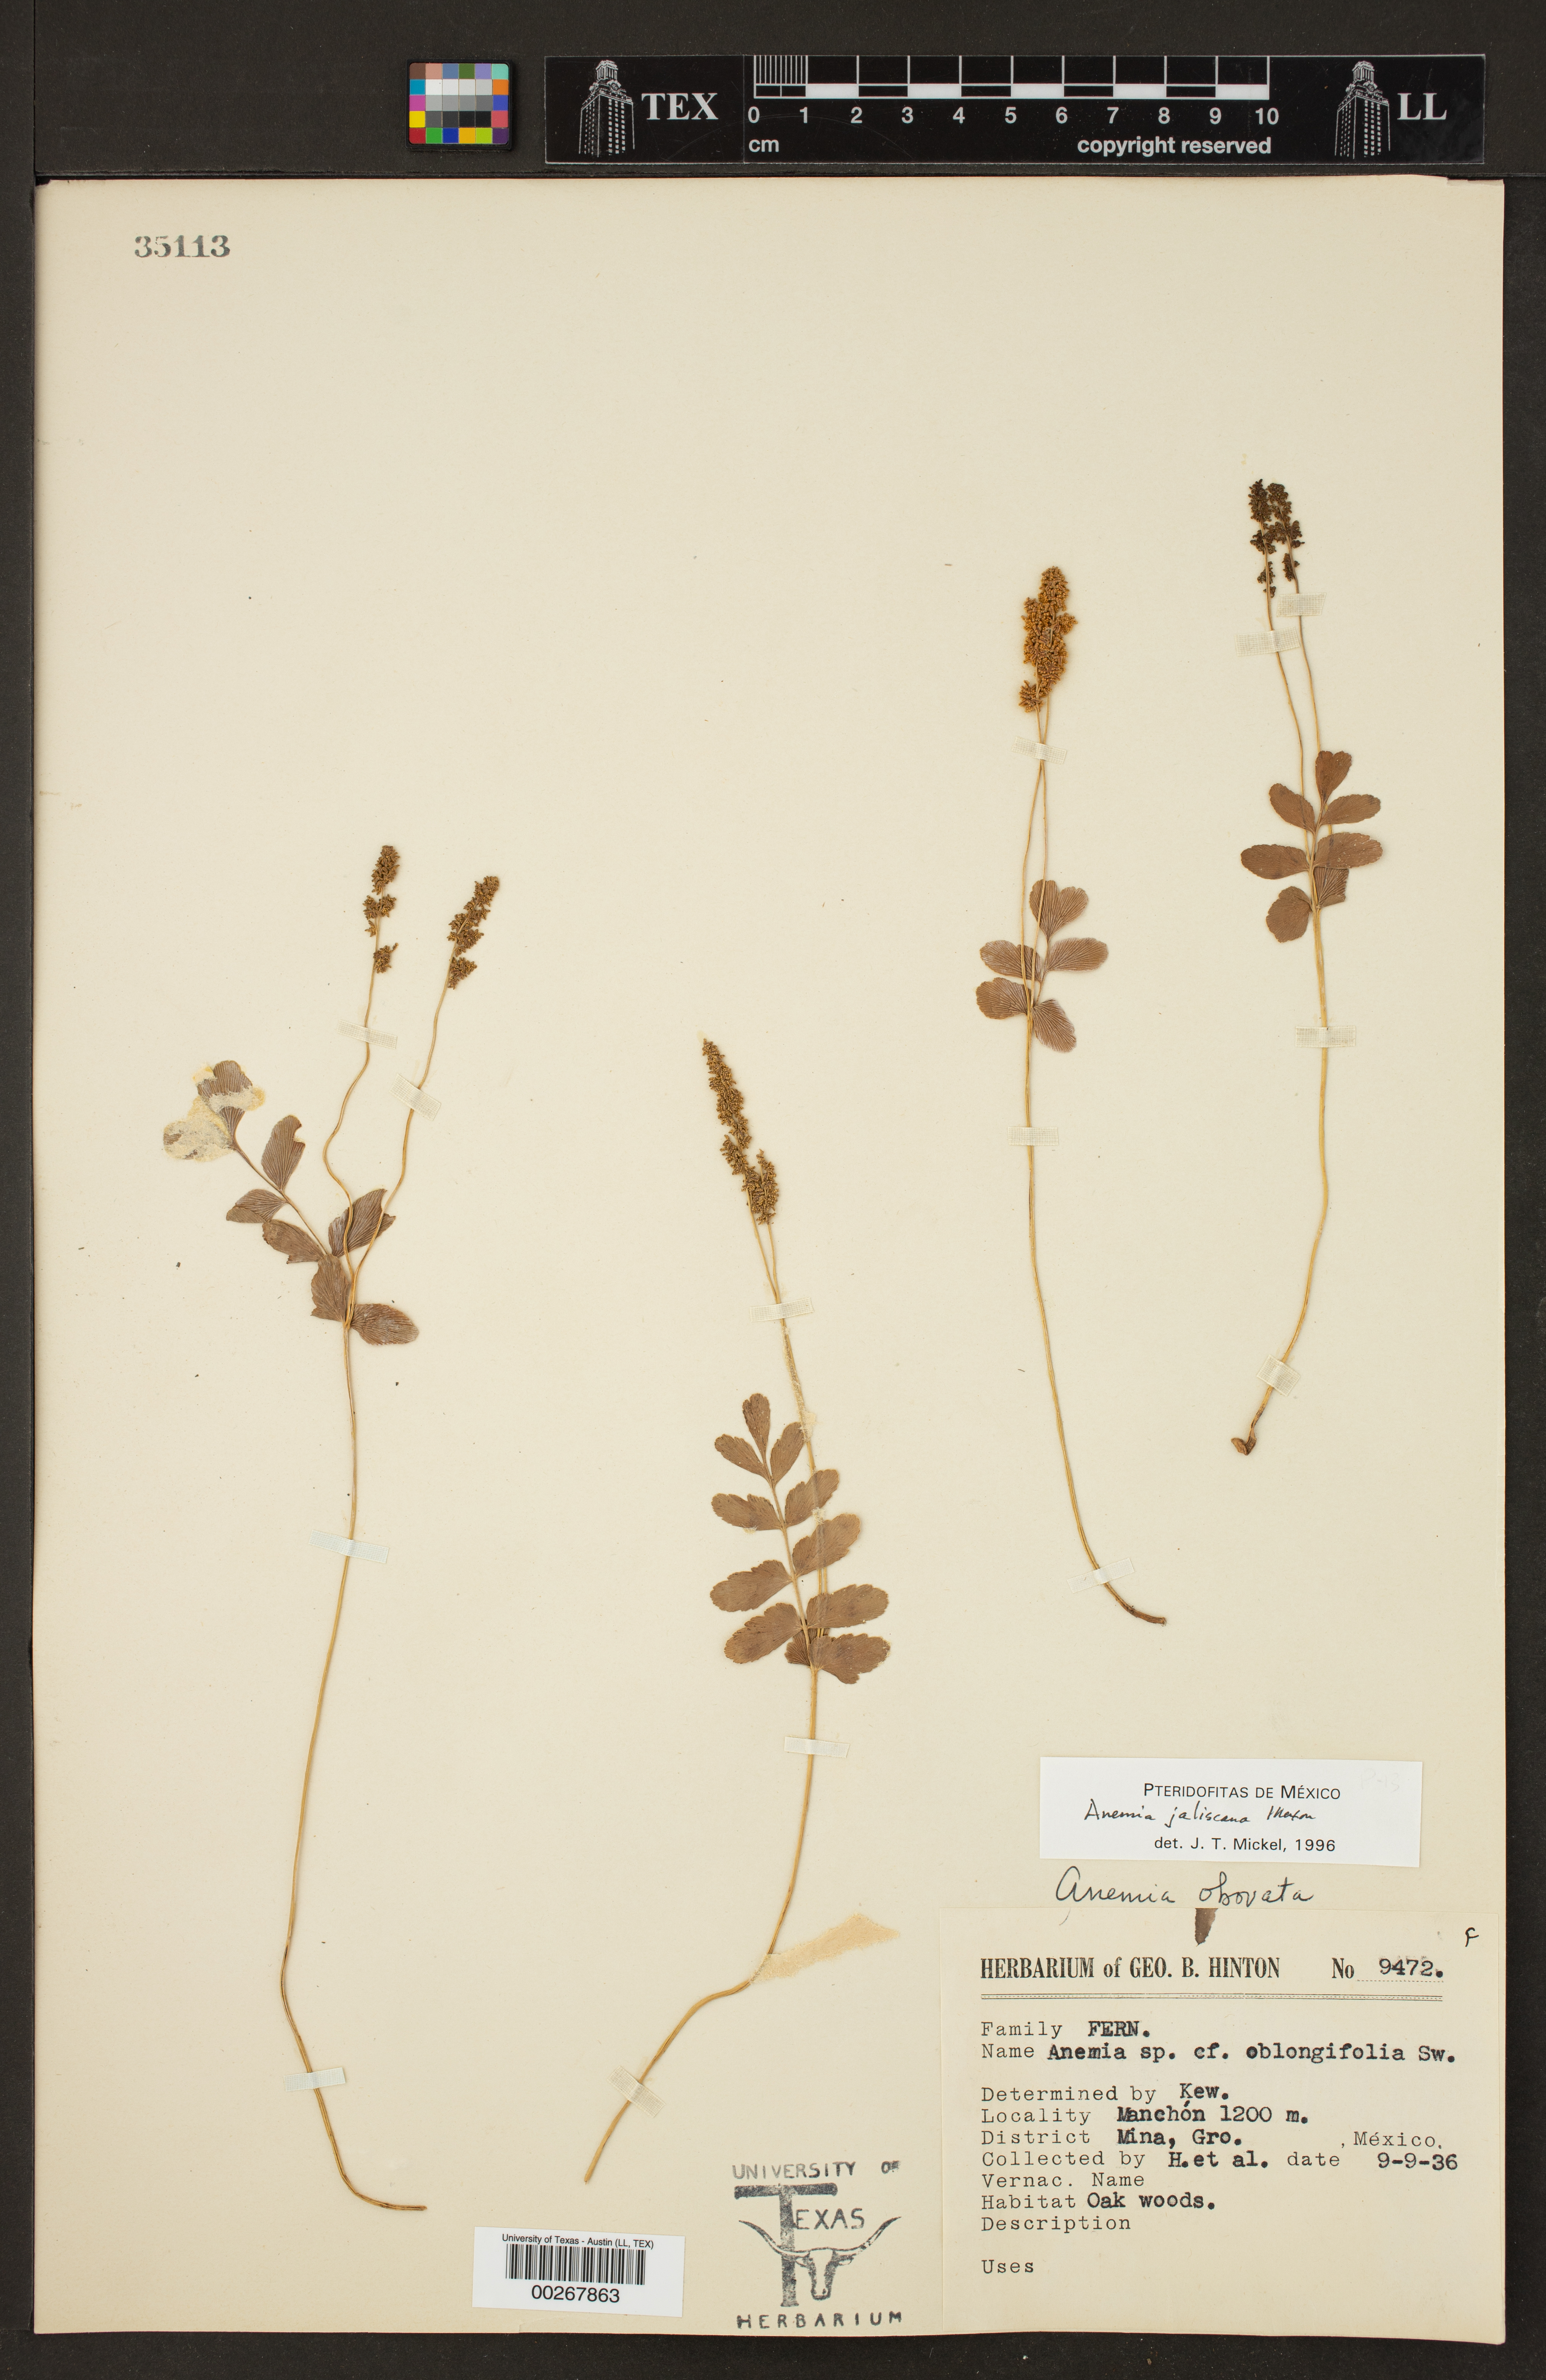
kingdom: Plantae
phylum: Tracheophyta
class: Polypodiopsida
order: Schizaeales
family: Anemiaceae
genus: Anemia
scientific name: Anemia jaliscana
